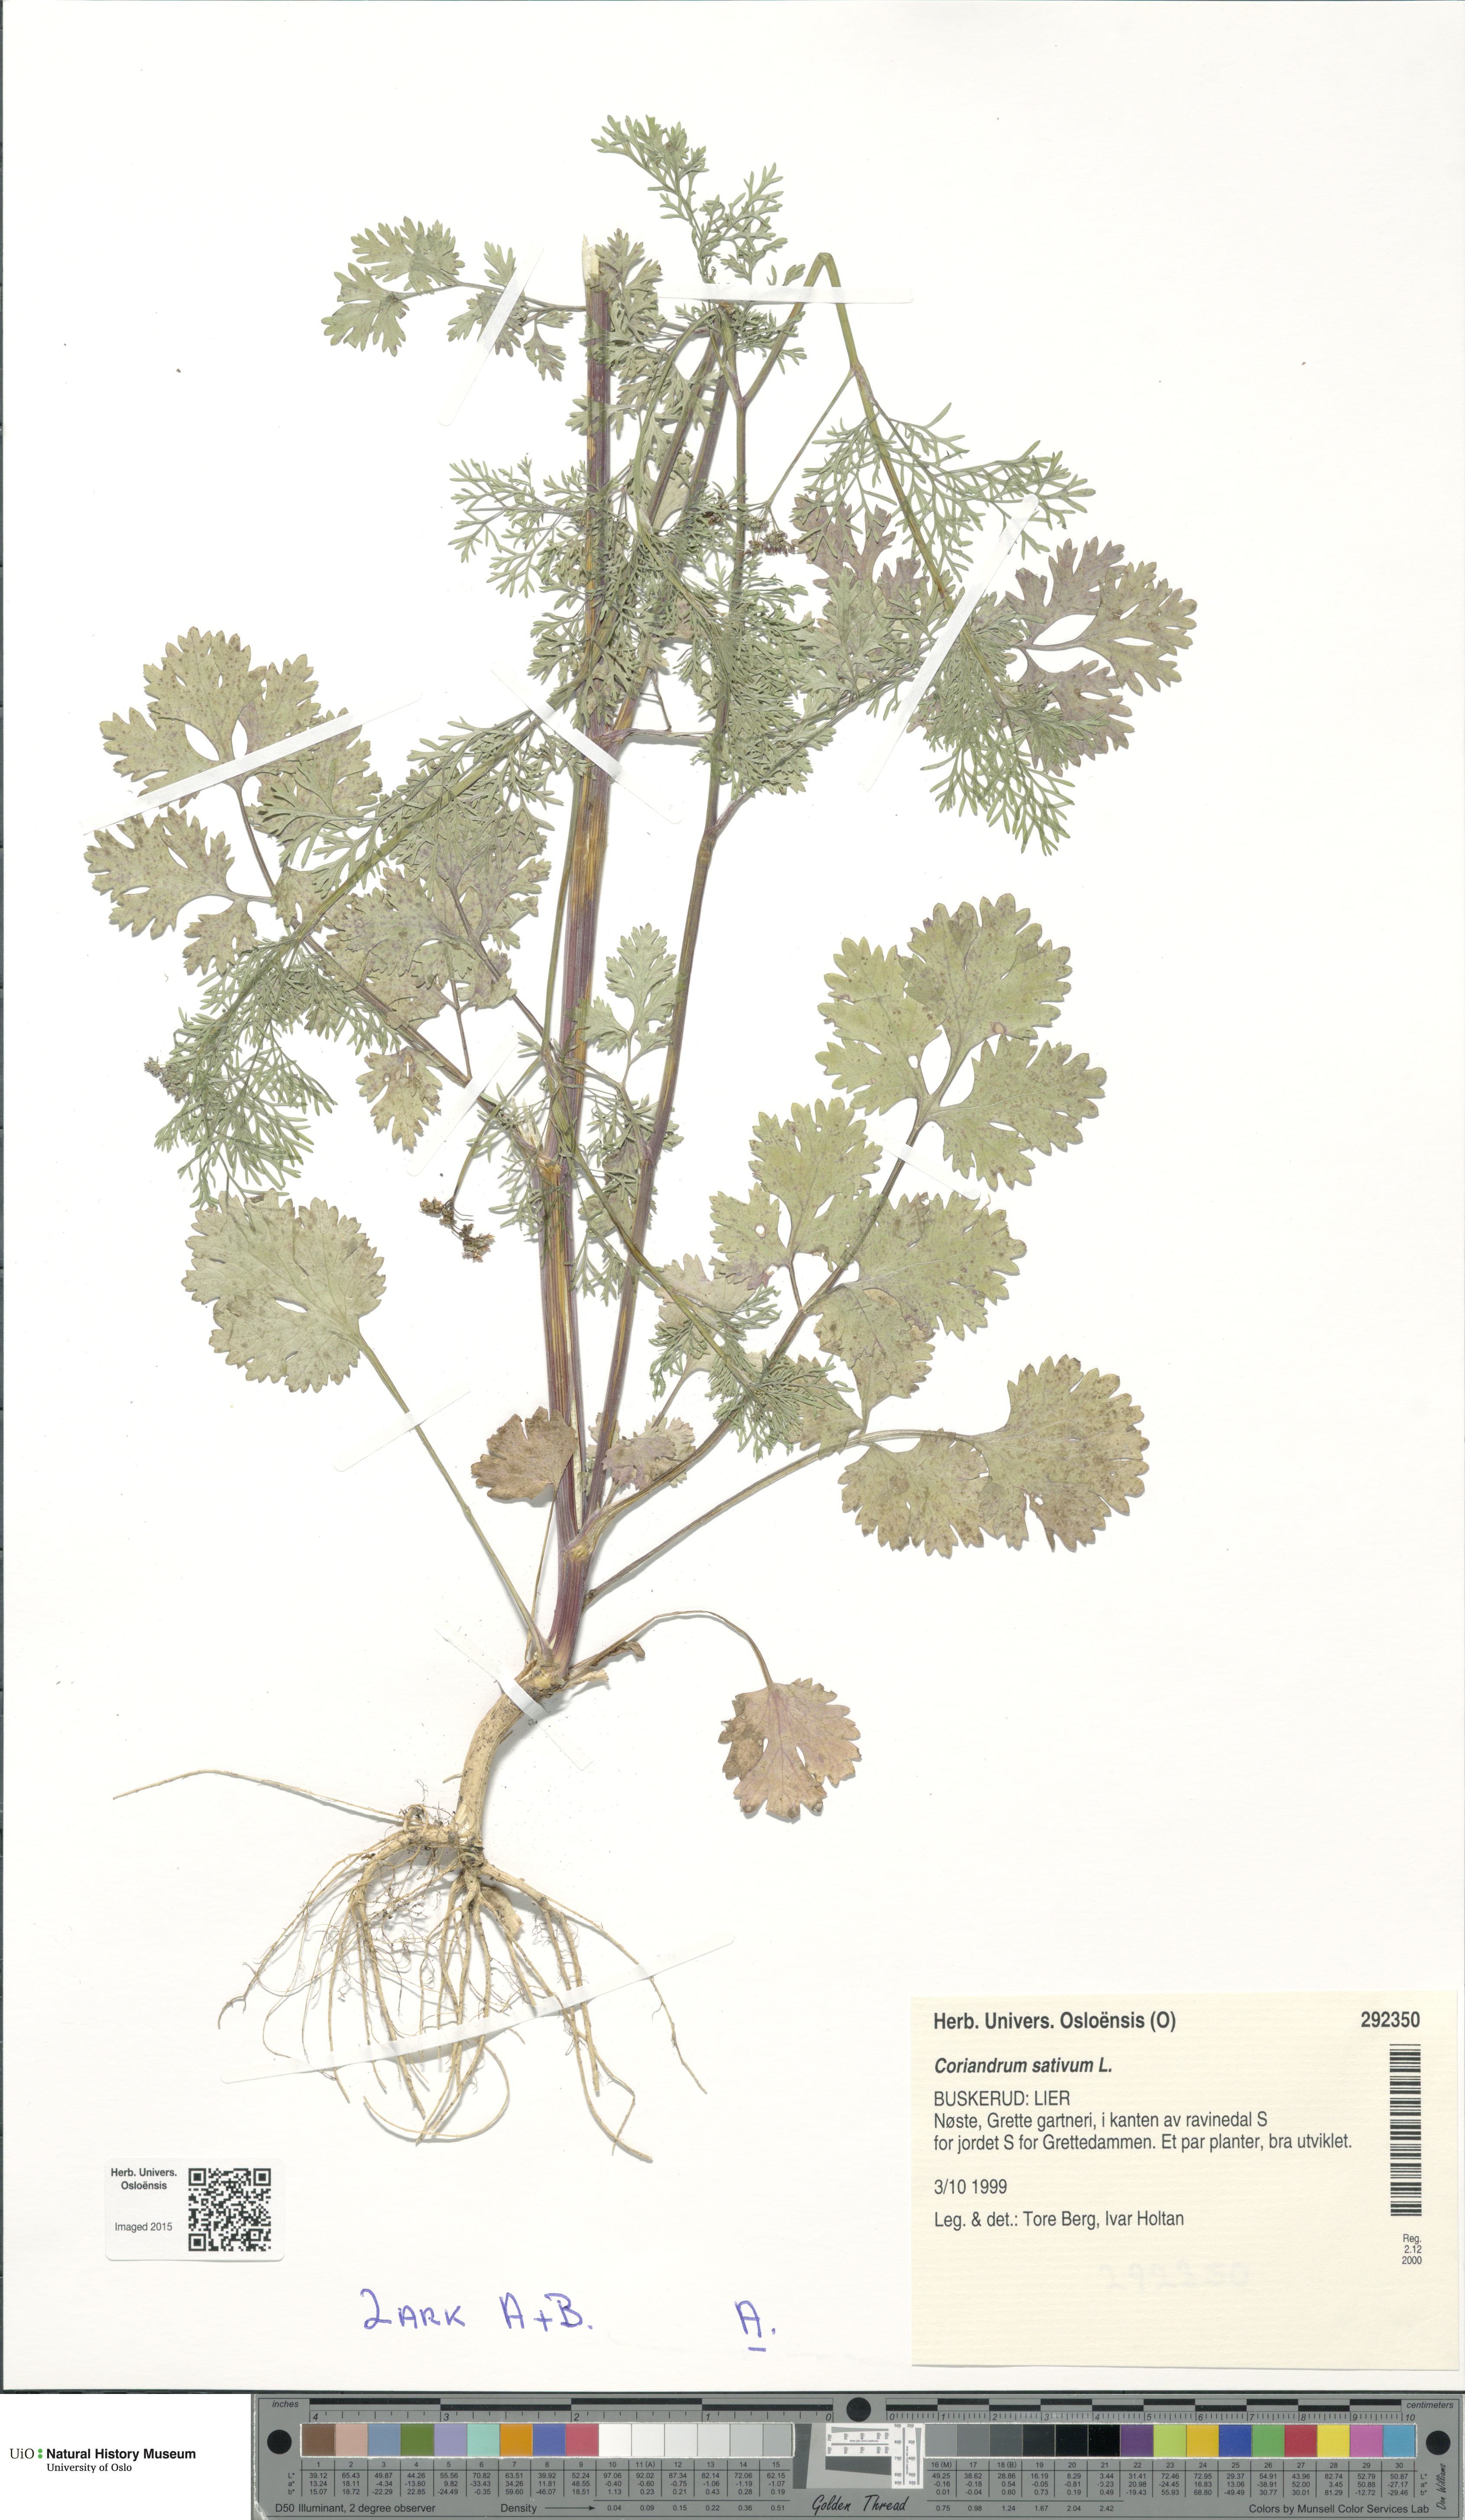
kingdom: Plantae
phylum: Tracheophyta
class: Magnoliopsida
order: Apiales
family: Apiaceae
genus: Coriandrum
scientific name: Coriandrum sativum
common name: Coriander
